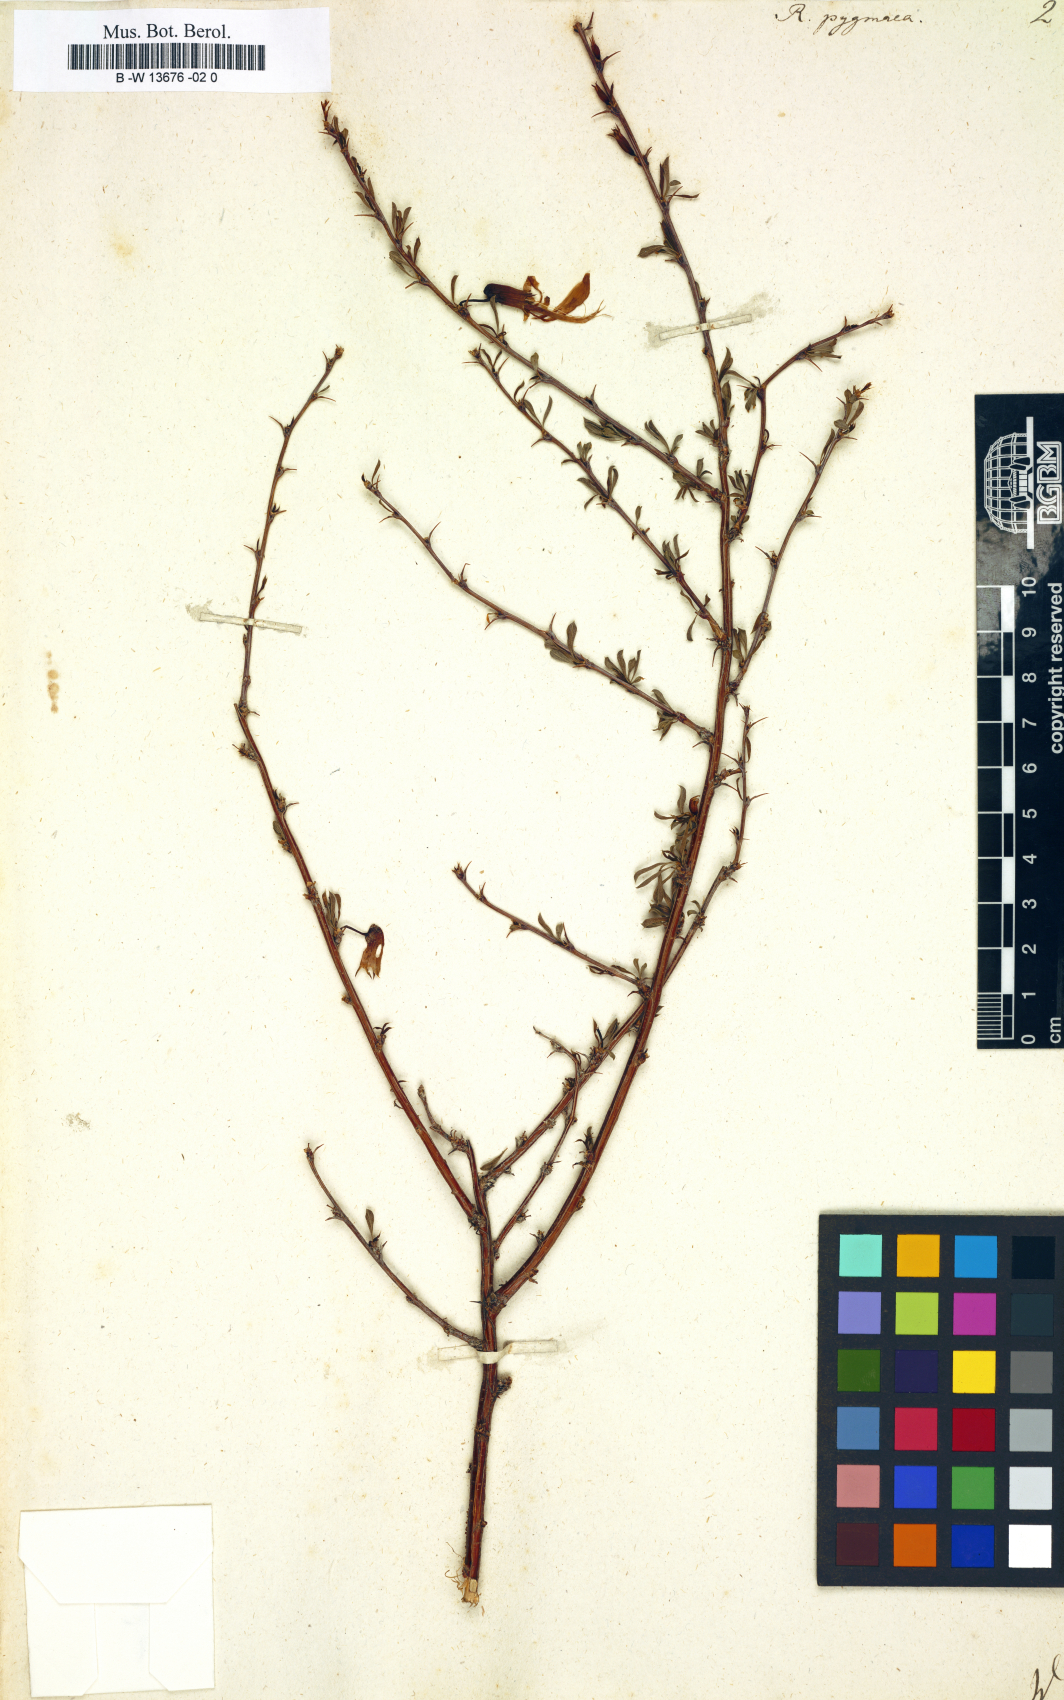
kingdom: Plantae
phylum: Tracheophyta
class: Magnoliopsida
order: Fabales
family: Fabaceae
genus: Caragana
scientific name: Caragana pygmaea
